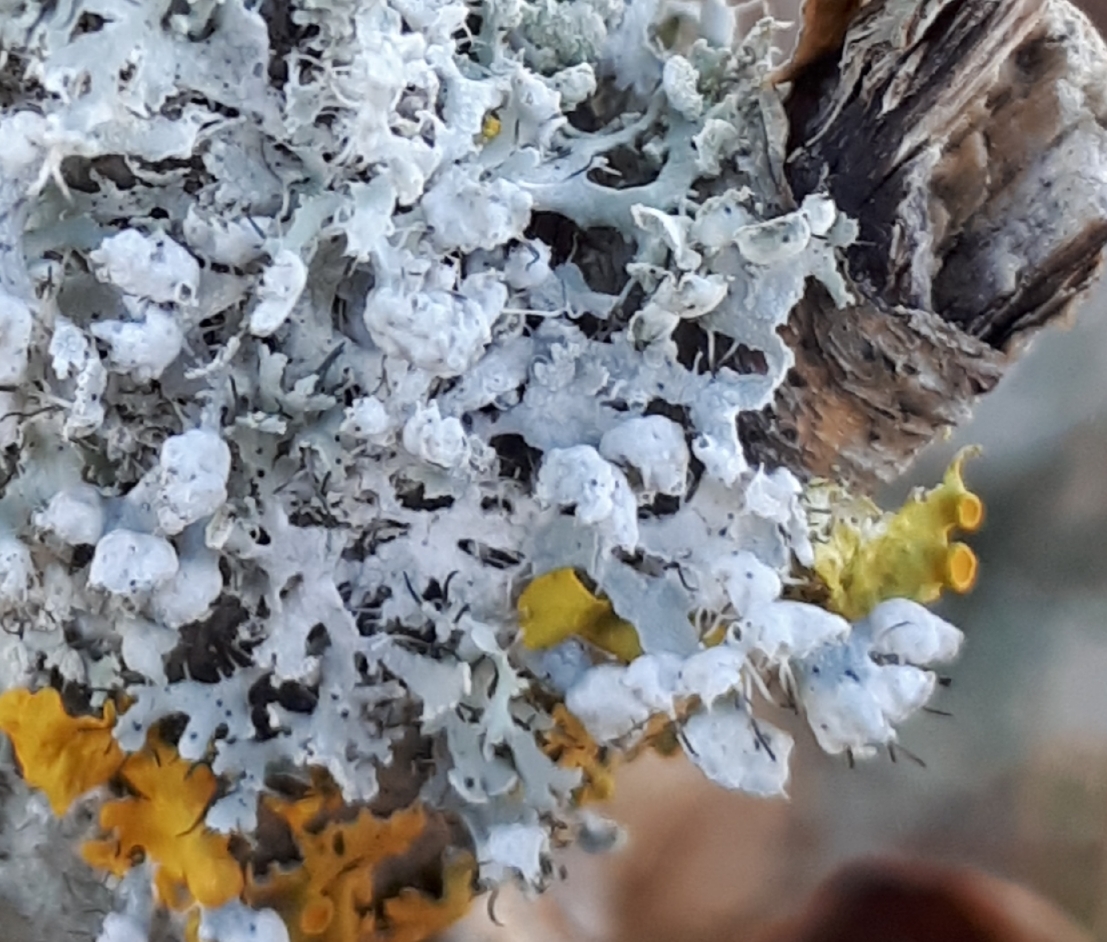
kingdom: Fungi
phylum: Ascomycota
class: Lecanoromycetes
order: Caliciales
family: Physciaceae
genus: Physcia
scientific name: Physcia adscendens
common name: hætte-rosetlav
